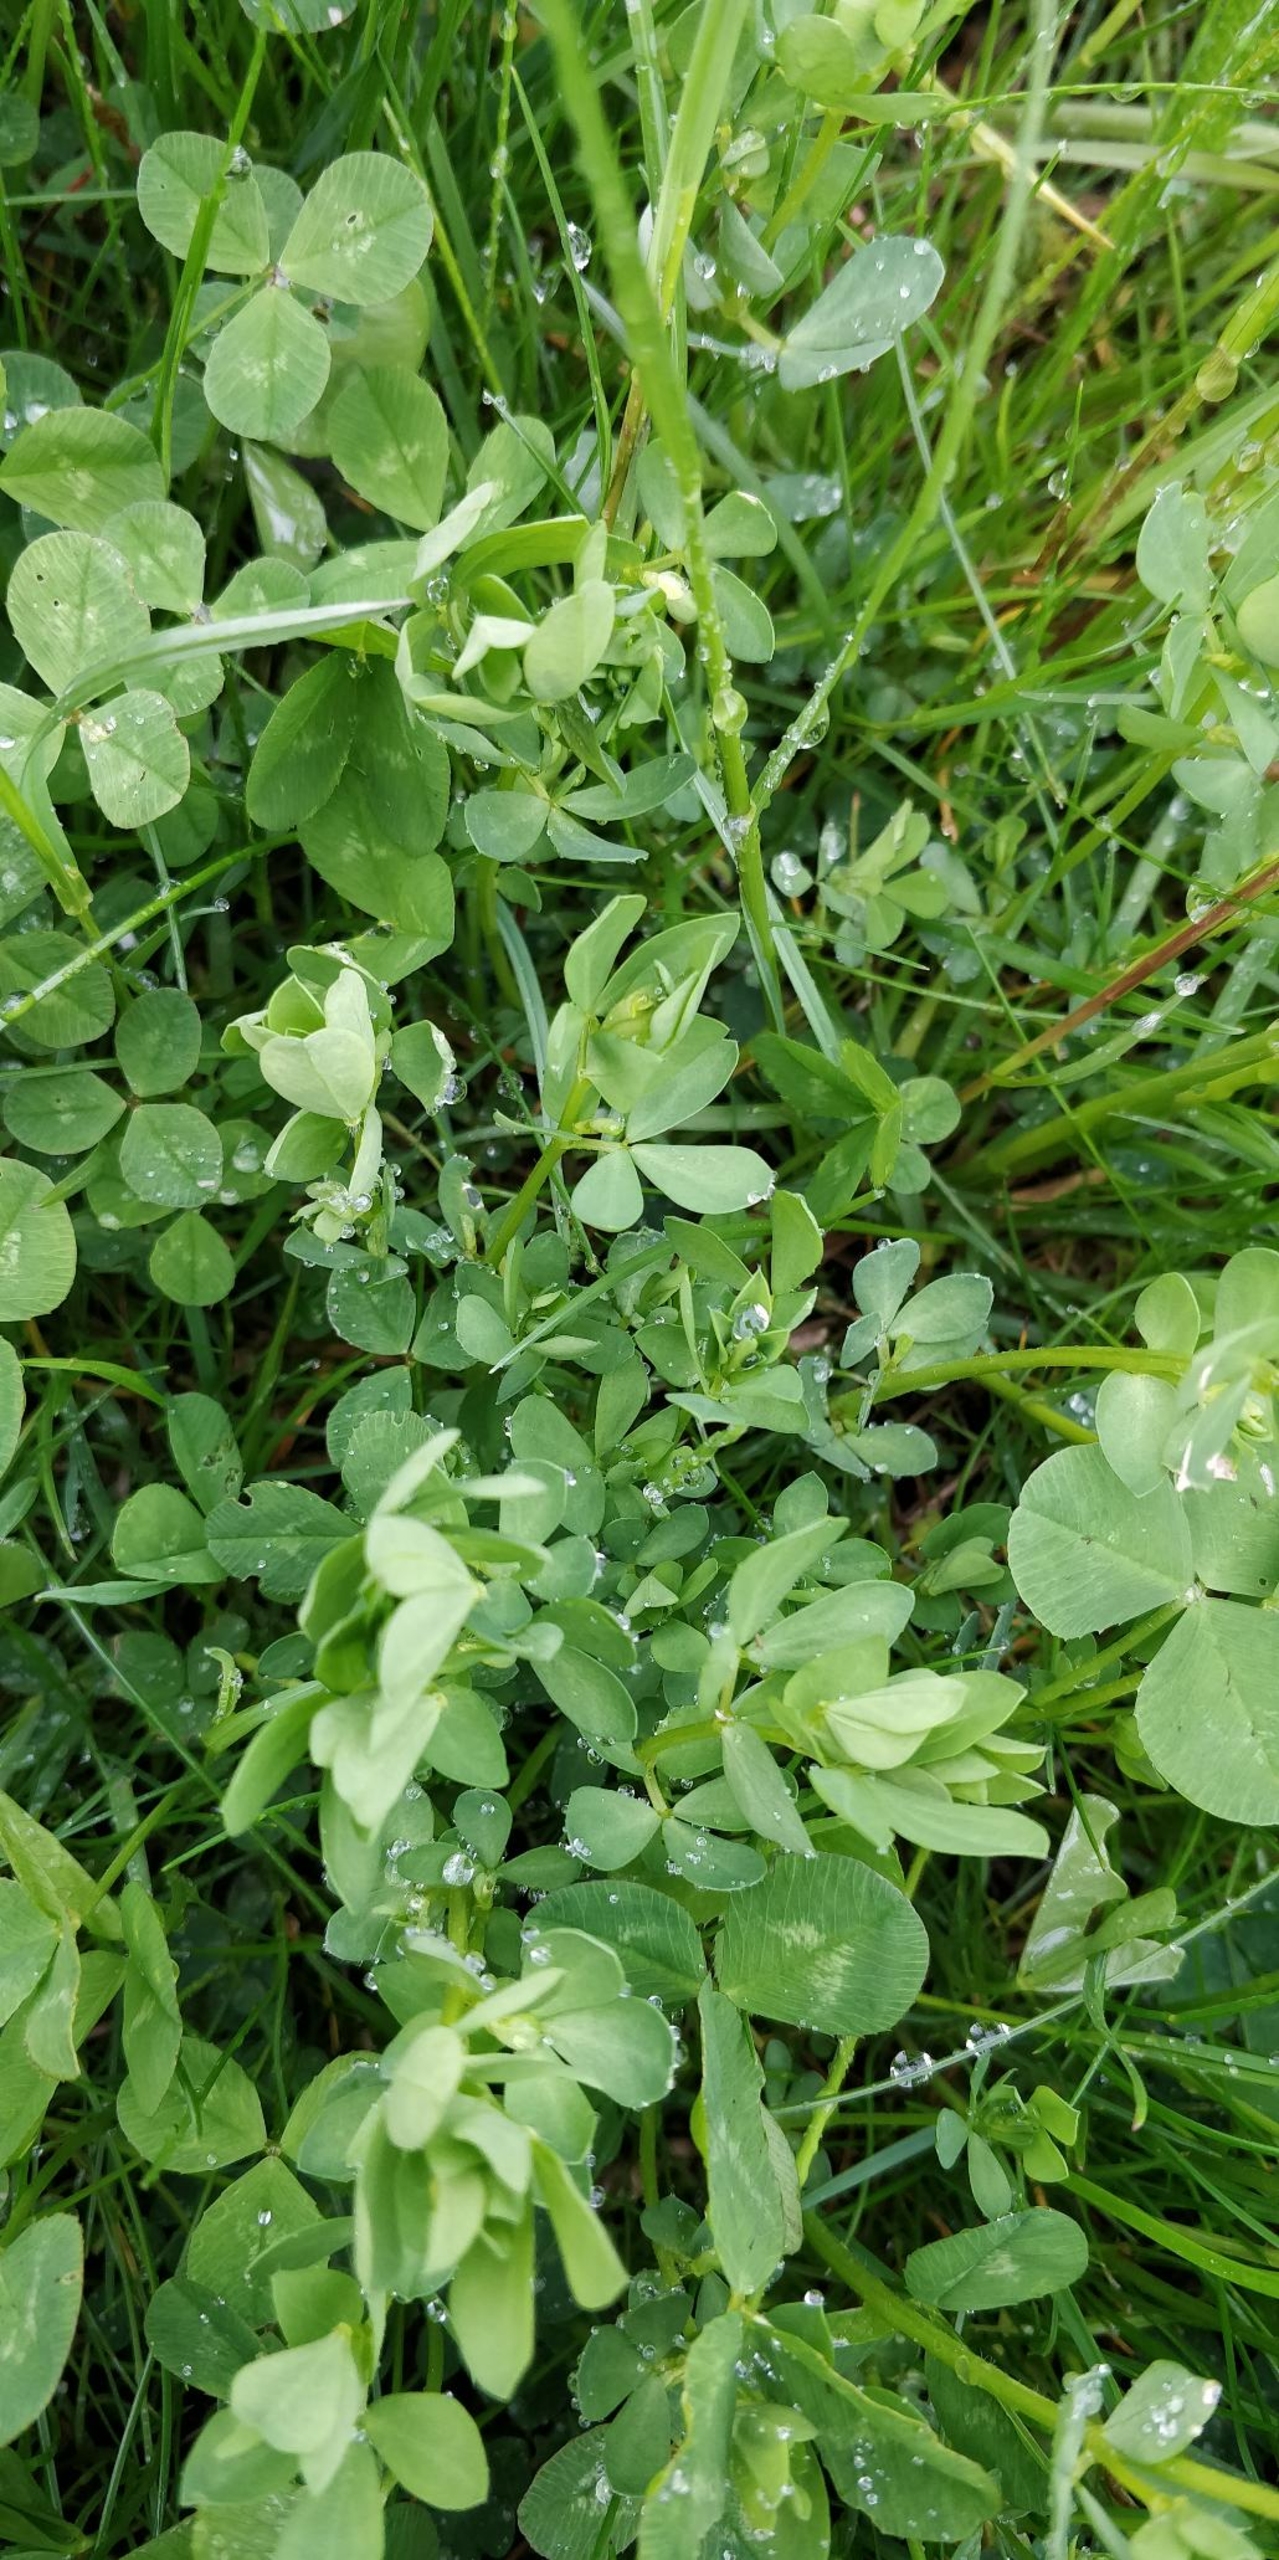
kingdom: Plantae
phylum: Tracheophyta
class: Magnoliopsida
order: Fabales
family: Fabaceae
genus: Lotus
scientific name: Lotus corniculatus
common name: Almindelig kællingetand
